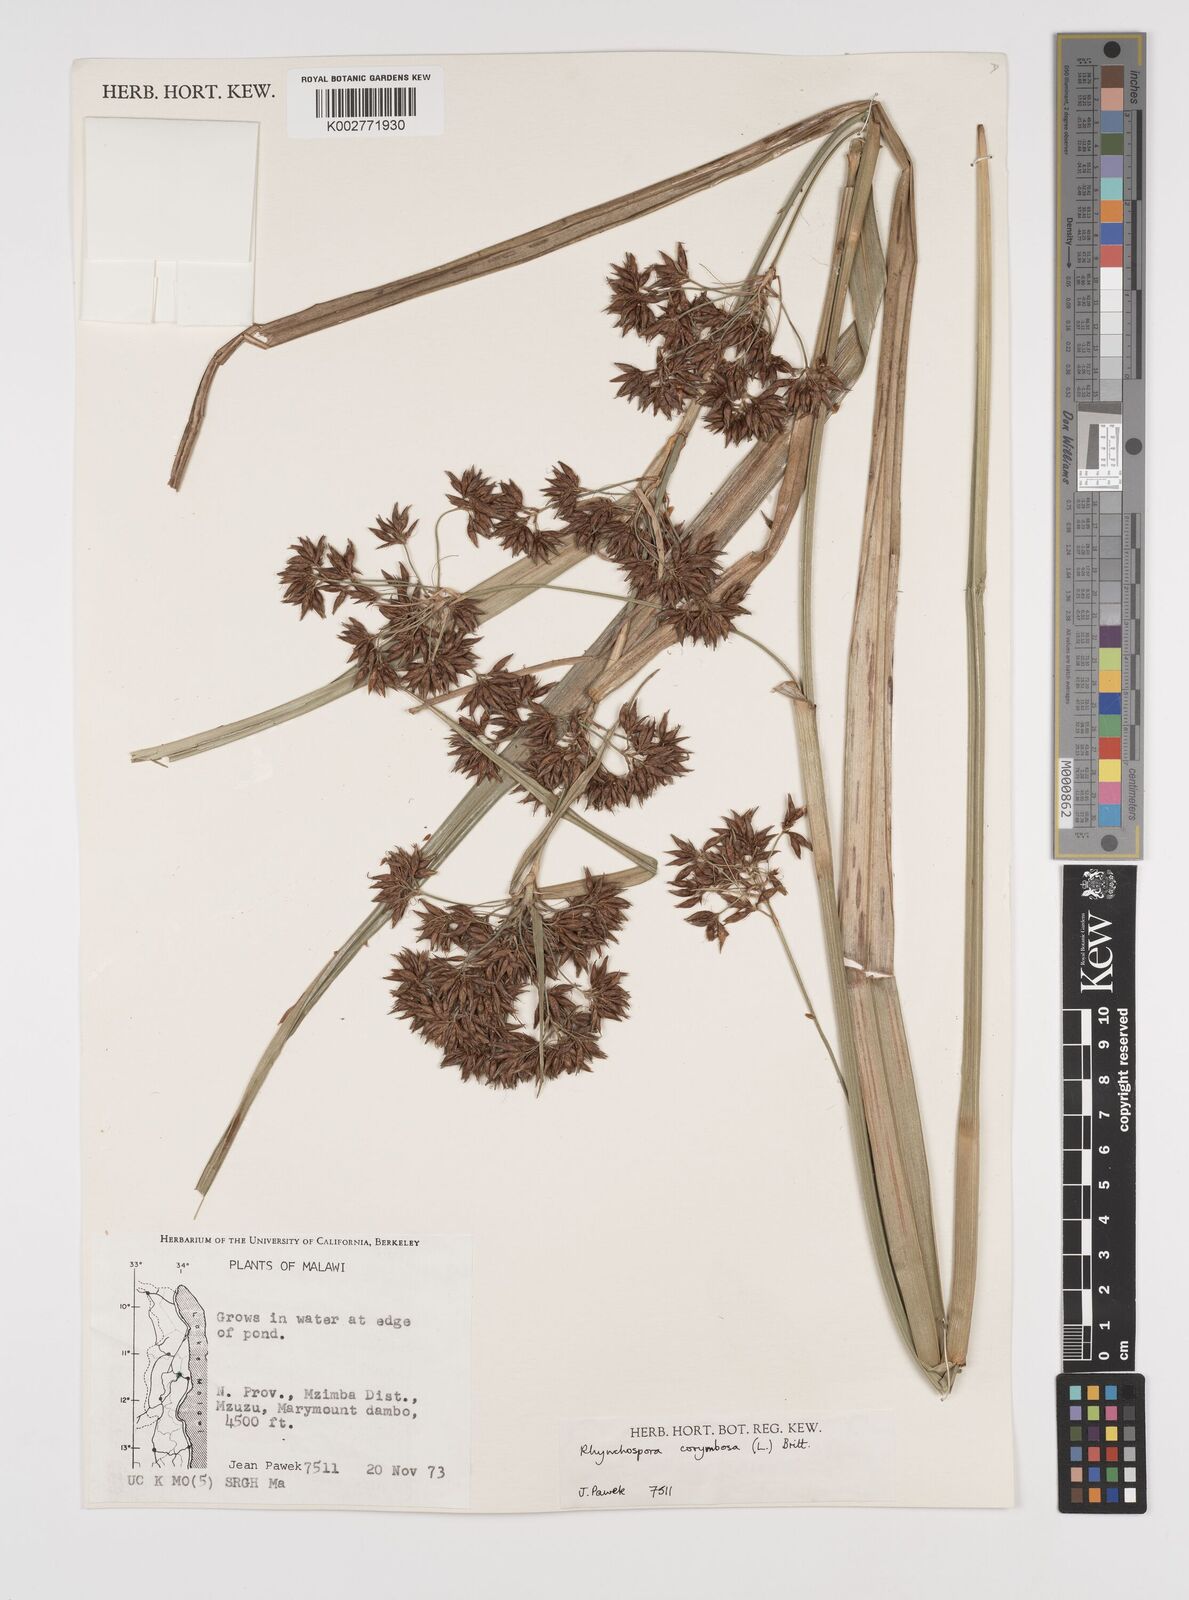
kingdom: Plantae
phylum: Tracheophyta
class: Liliopsida
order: Poales
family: Cyperaceae
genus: Rhynchospora
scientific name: Rhynchospora corymbosa
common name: Golden beak sedge
